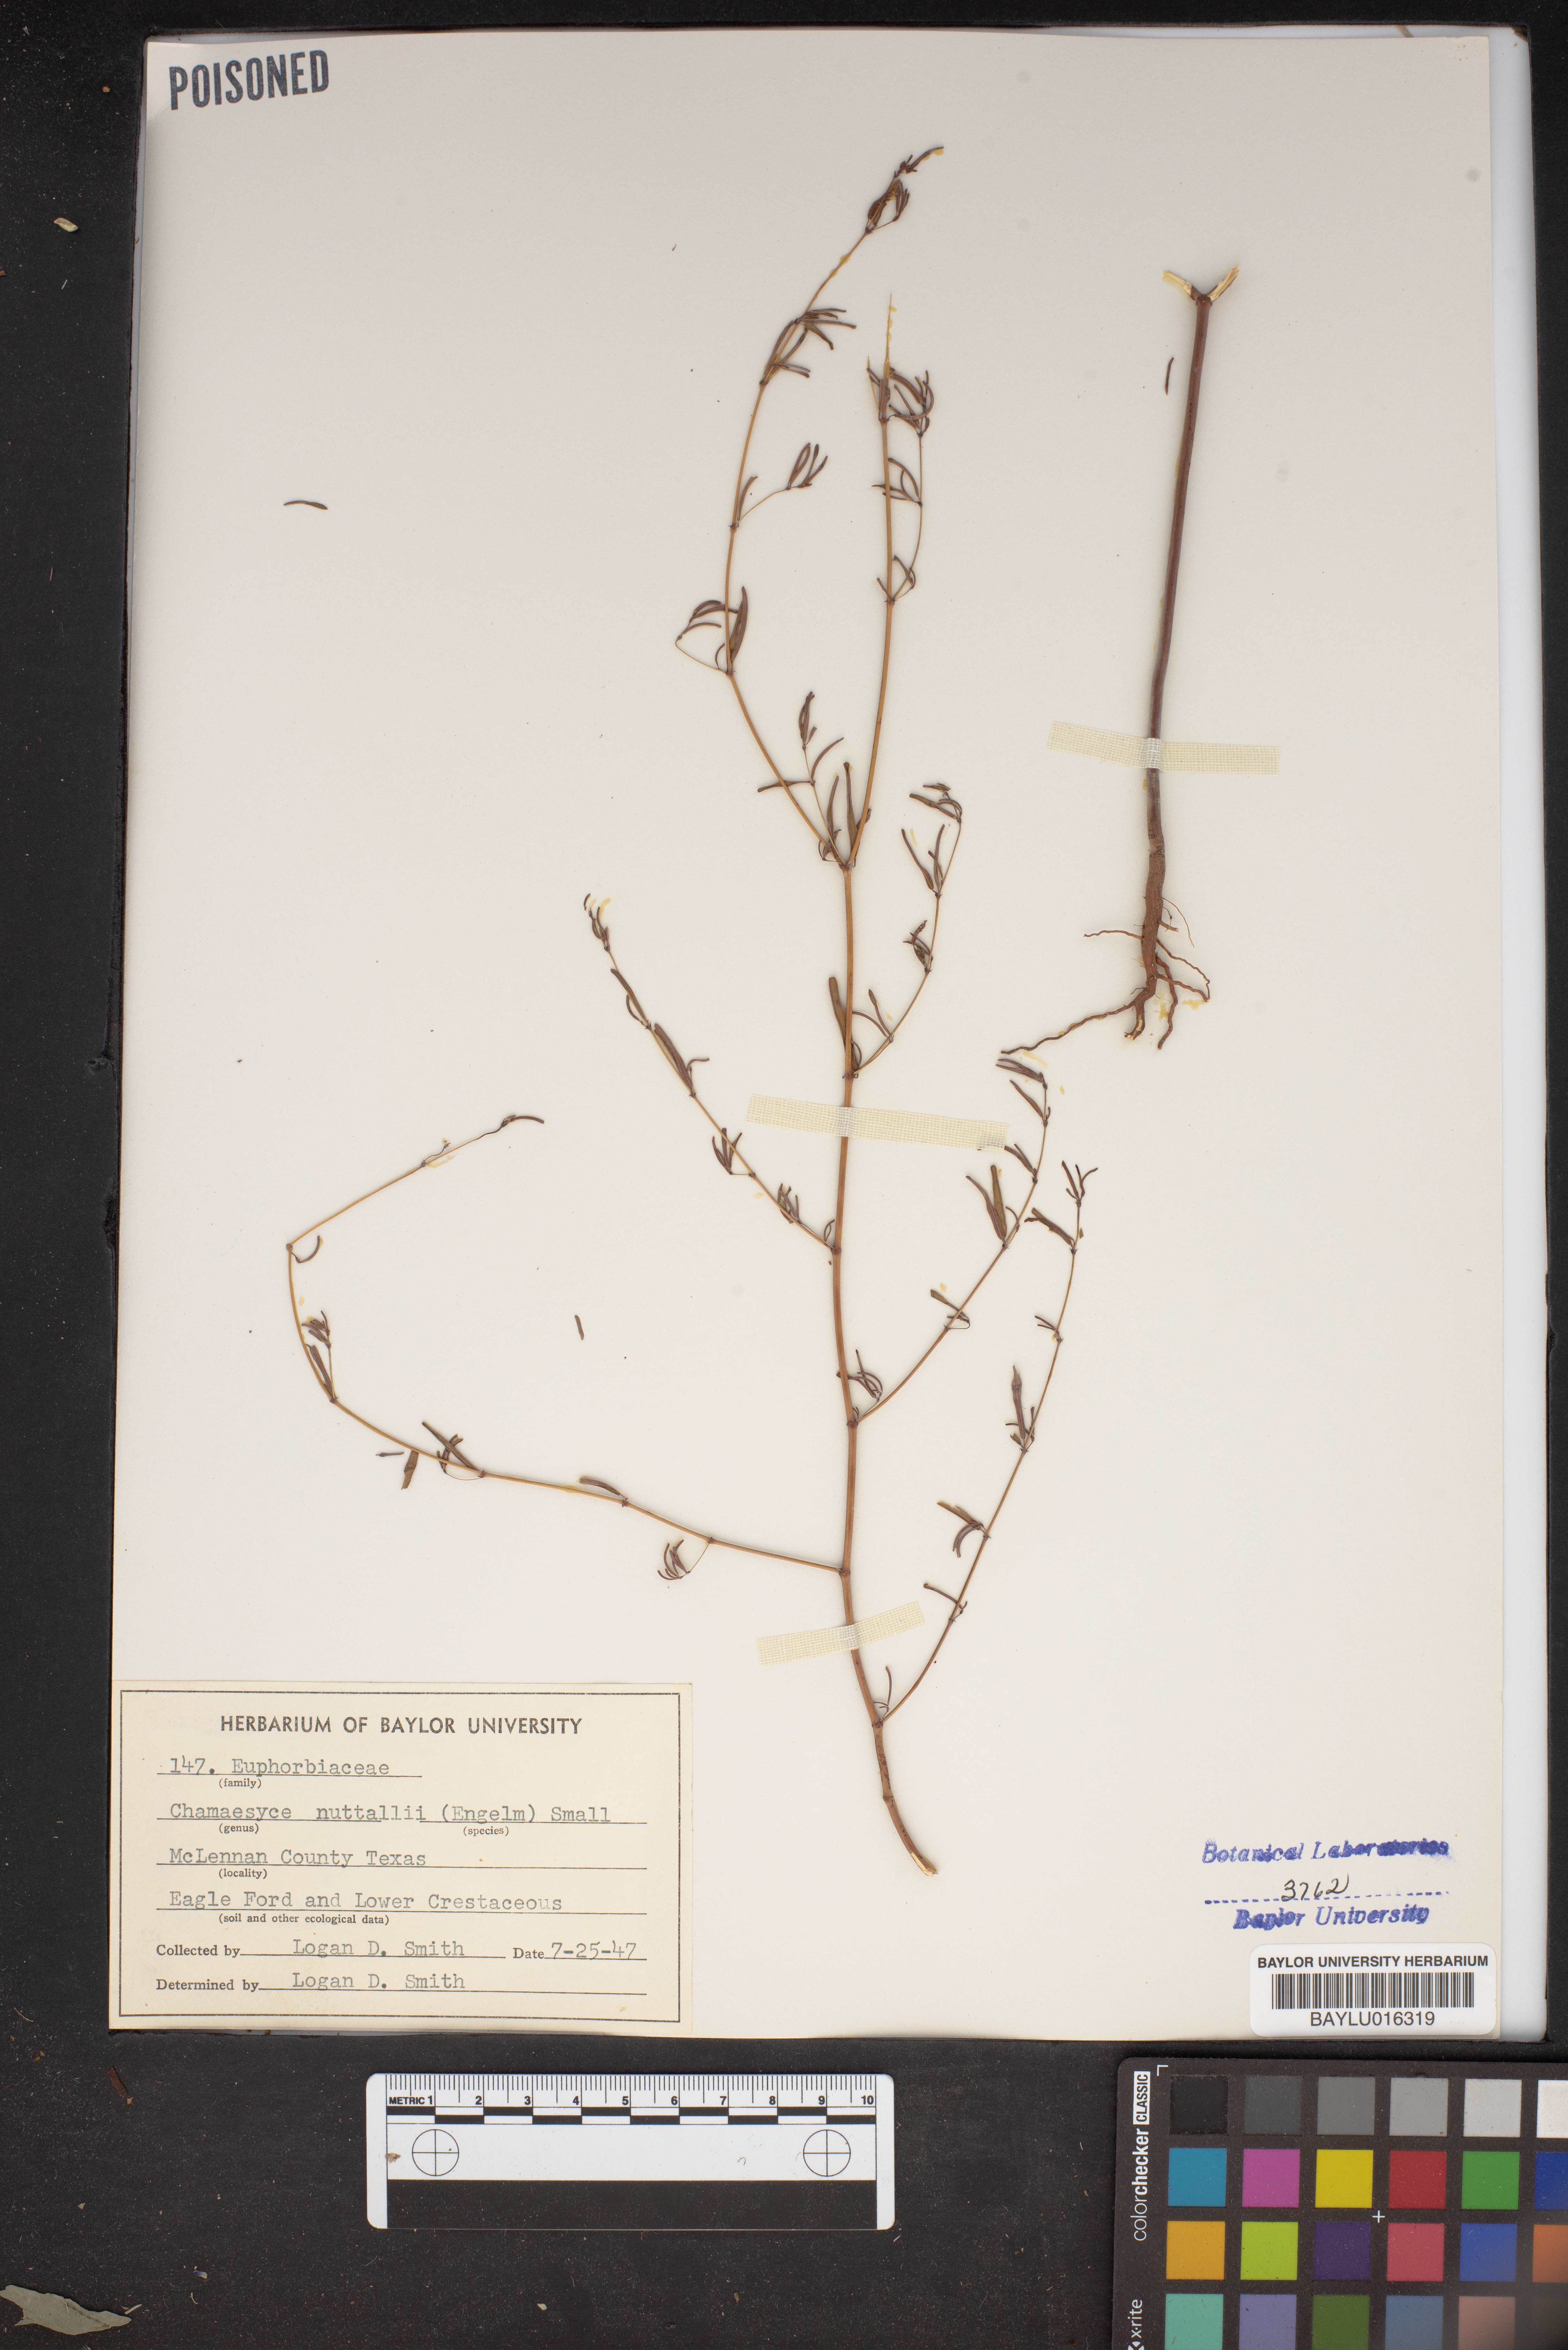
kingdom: Plantae
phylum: Tracheophyta
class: Magnoliopsida
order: Malpighiales
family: Euphorbiaceae
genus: Euphorbia
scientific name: Euphorbia missurica
